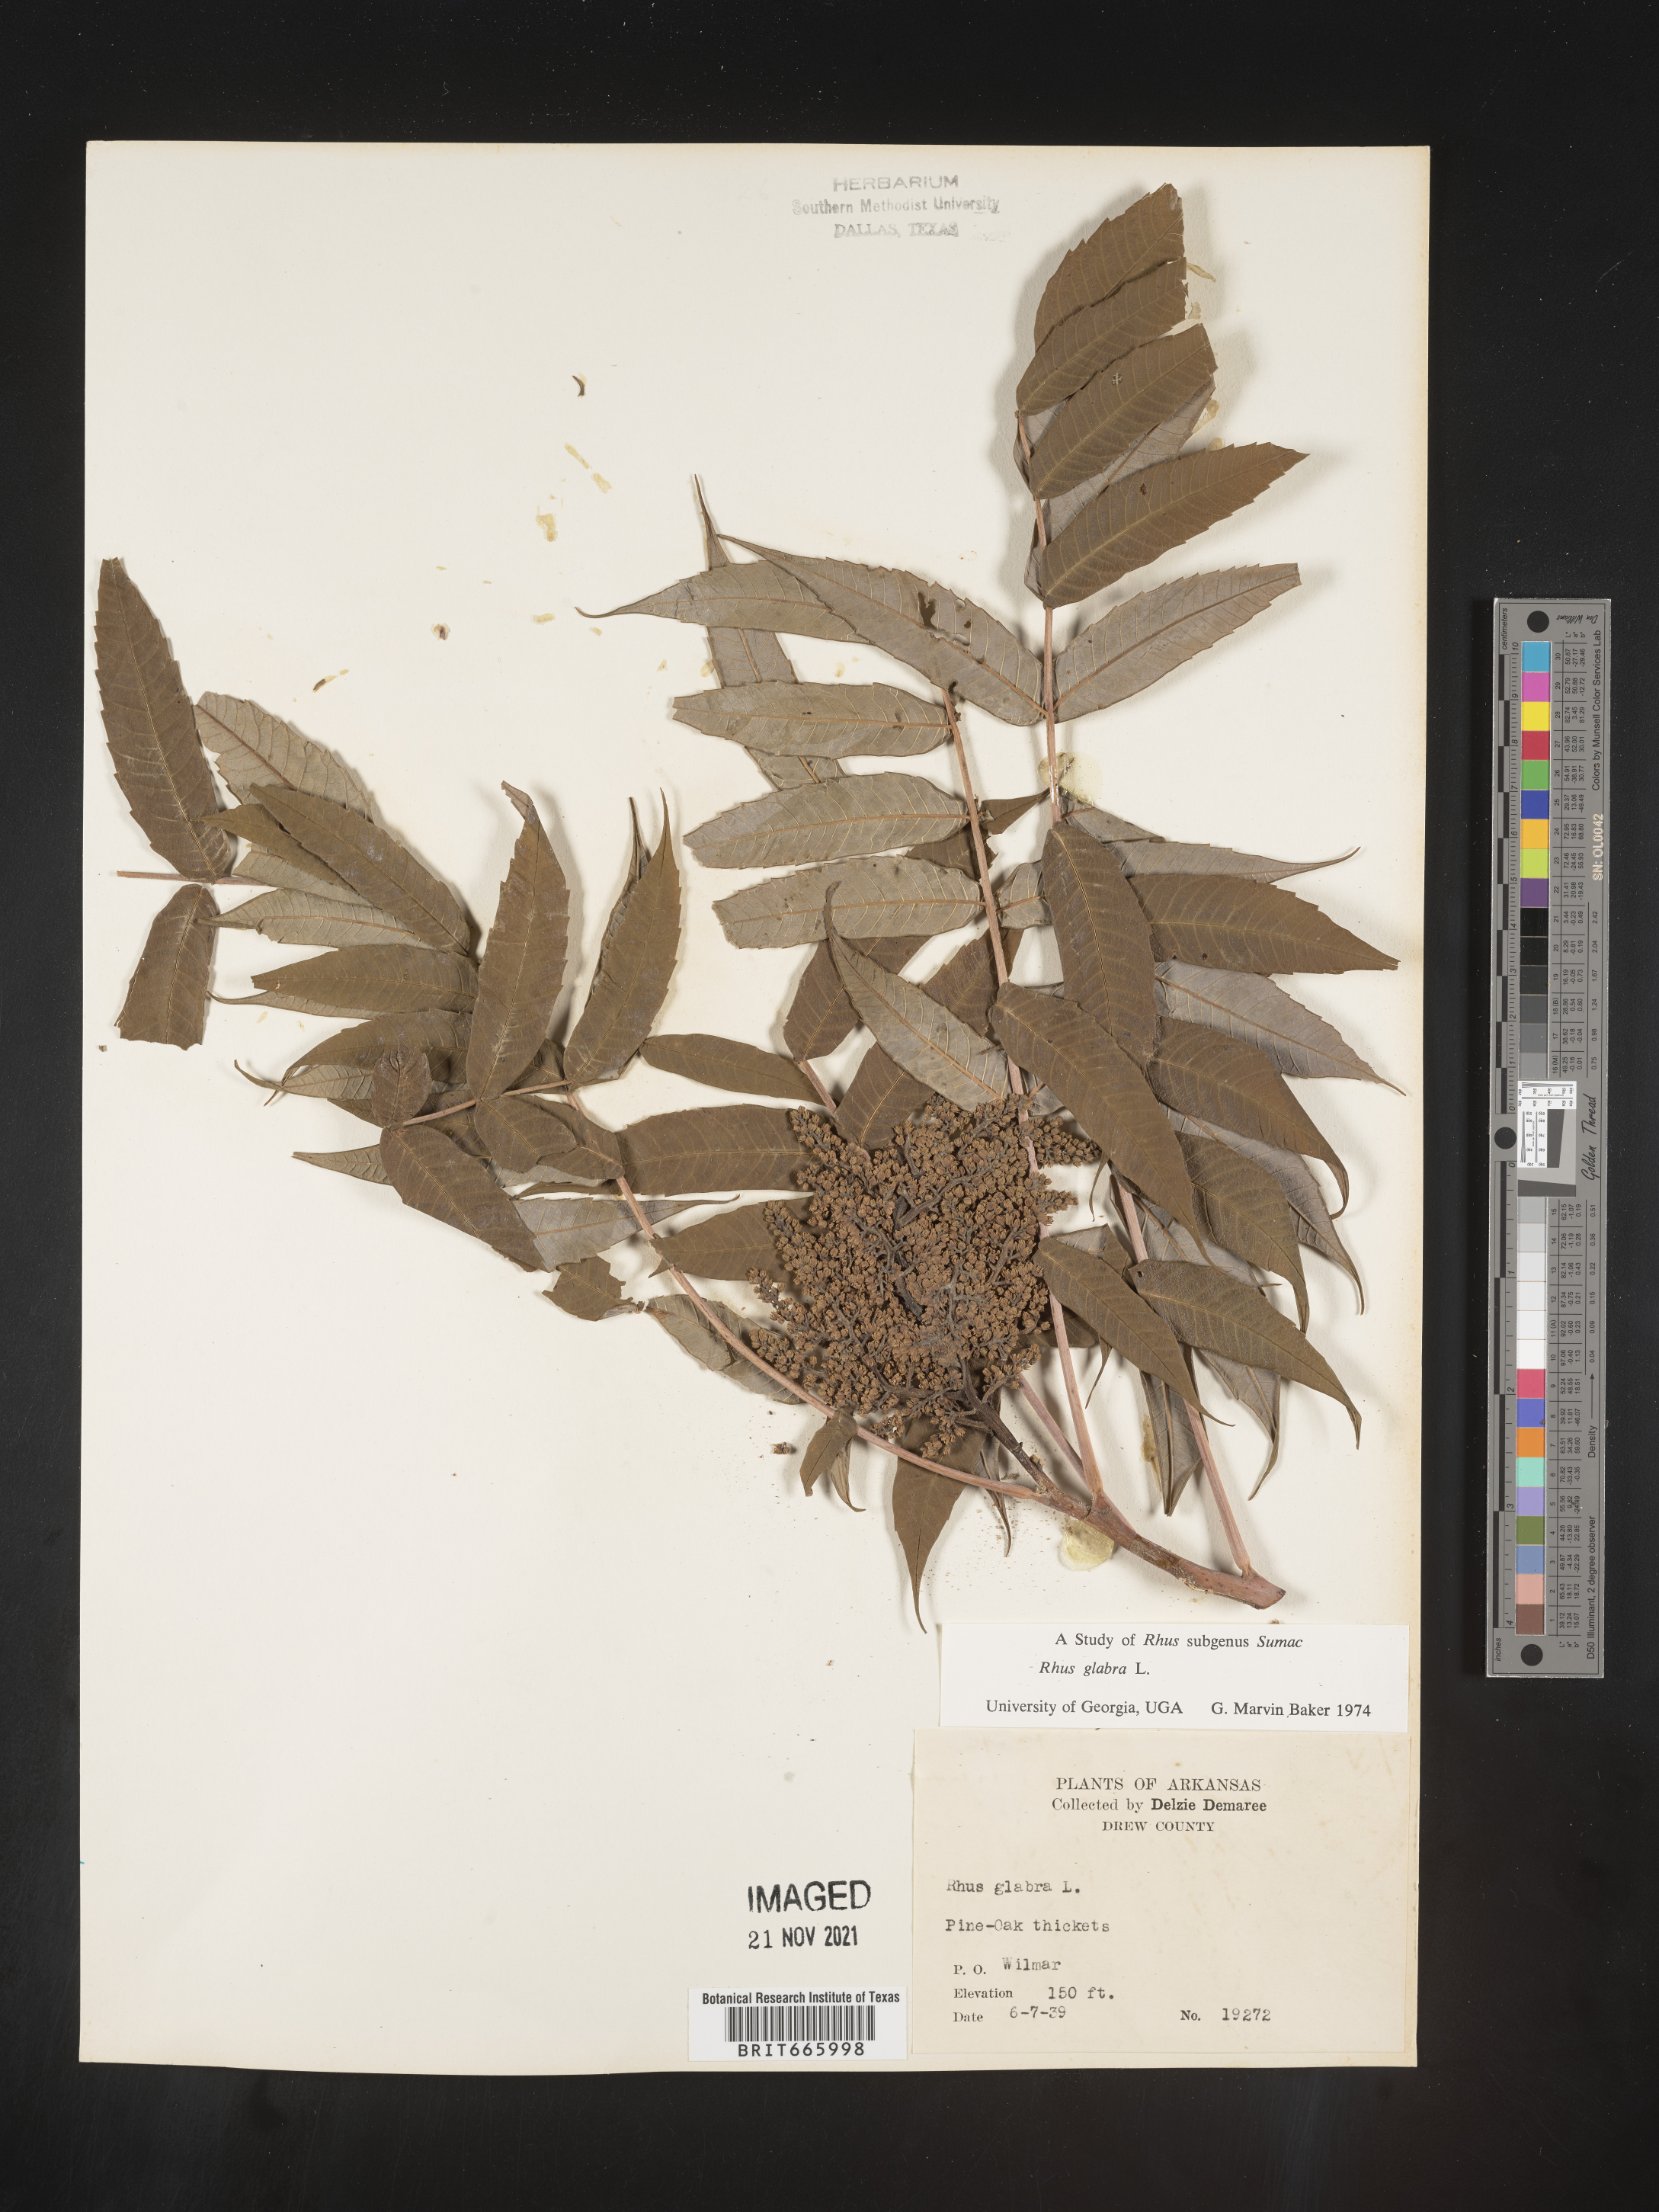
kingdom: Plantae
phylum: Tracheophyta
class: Magnoliopsida
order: Sapindales
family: Anacardiaceae
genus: Rhus
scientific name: Rhus glabra
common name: Scarlet sumac
